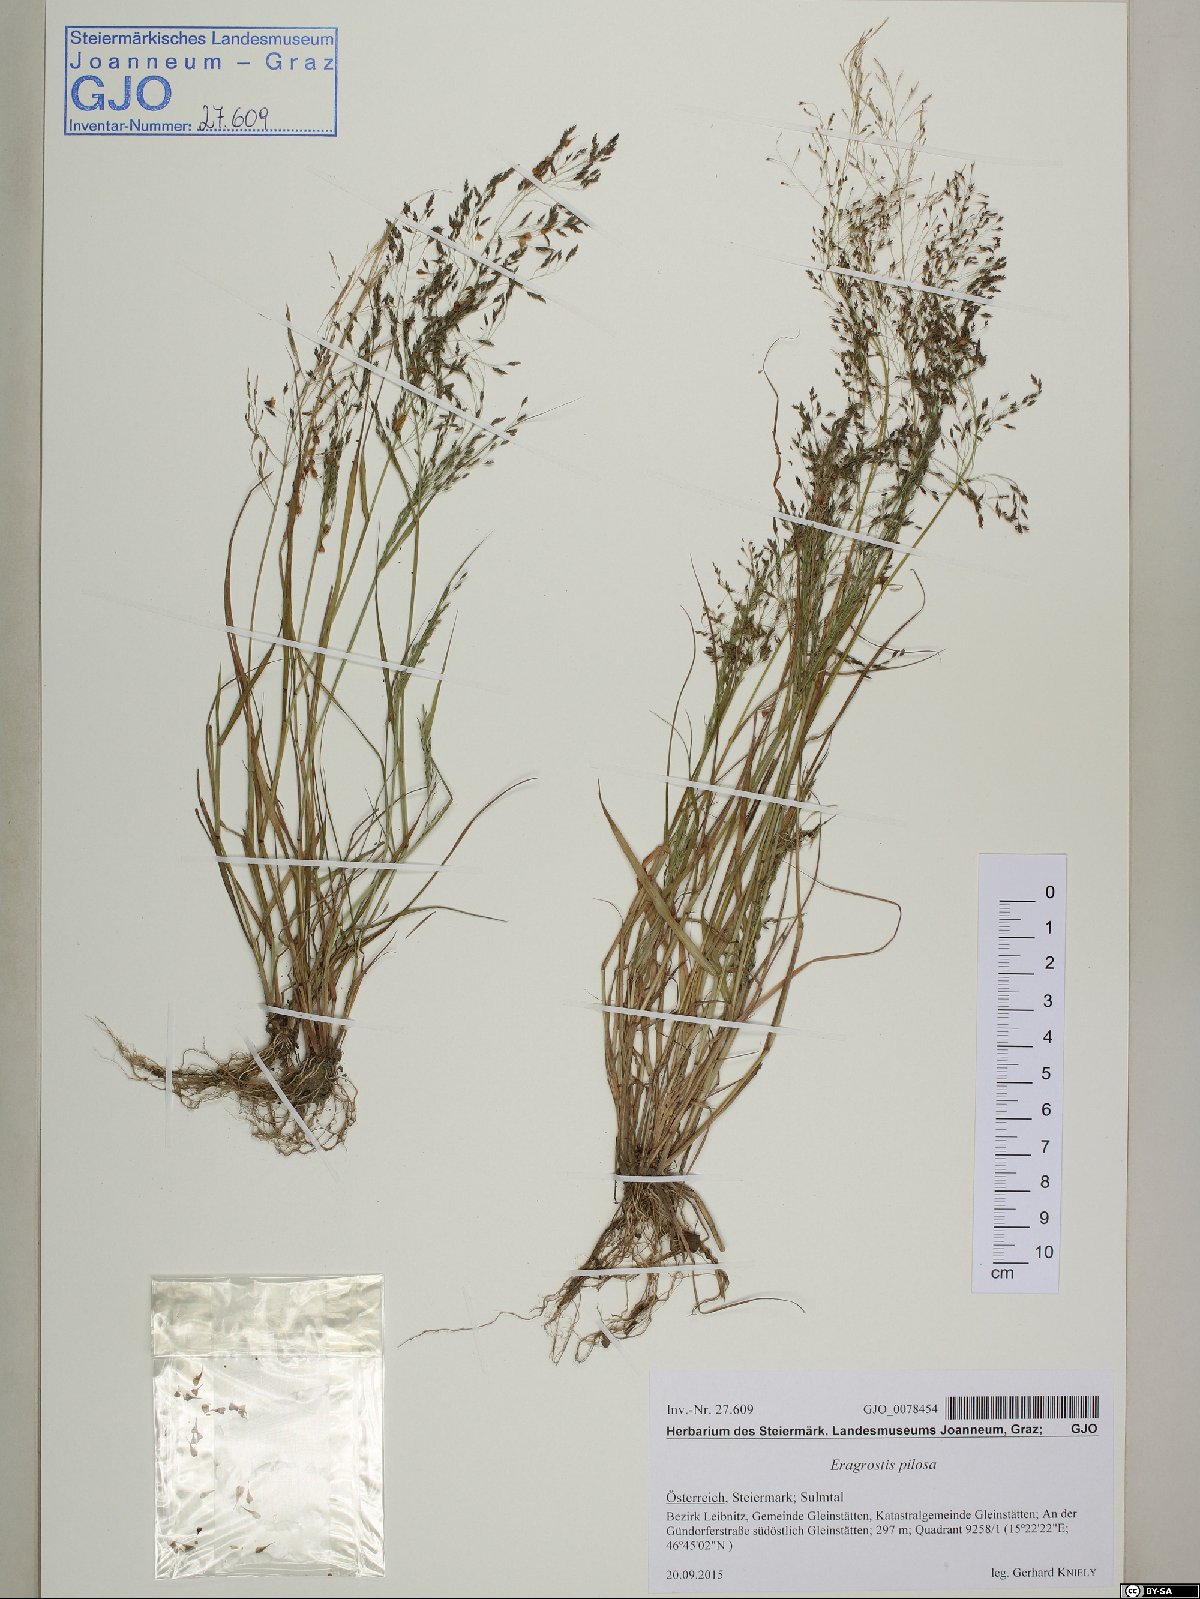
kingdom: Plantae
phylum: Tracheophyta
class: Liliopsida
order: Poales
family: Poaceae
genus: Eragrostis
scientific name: Eragrostis pilosa
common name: Indian lovegrass
